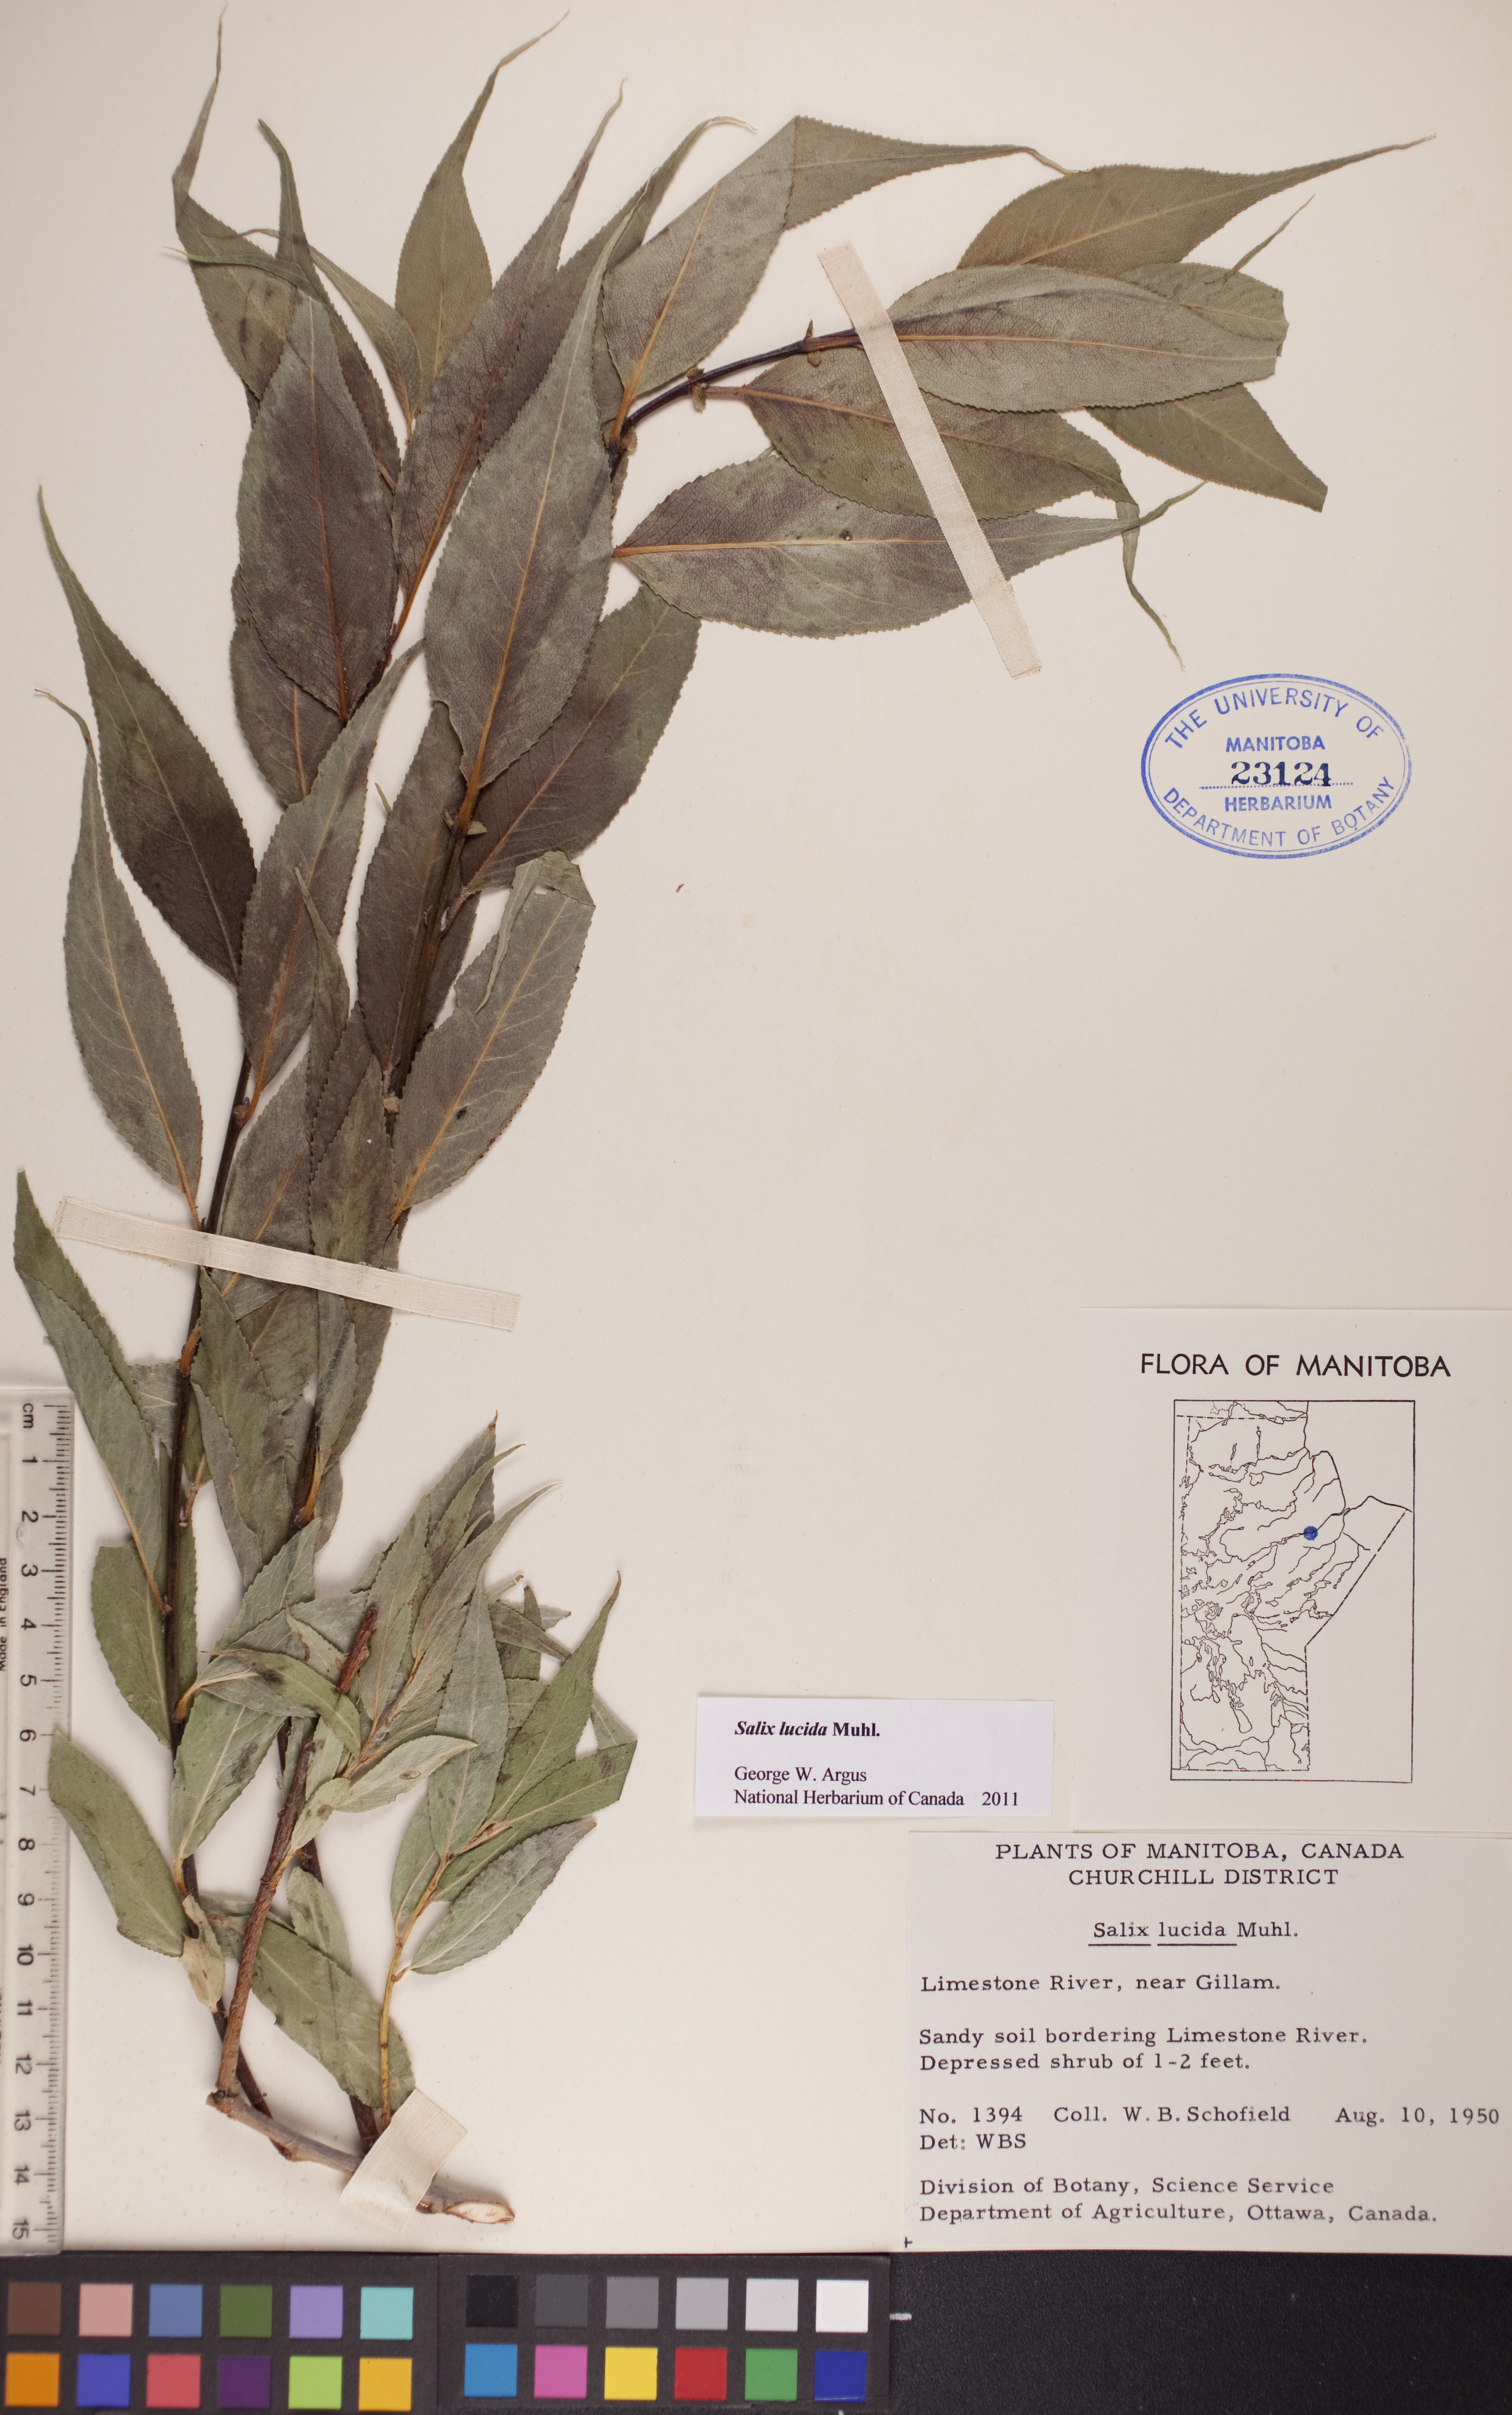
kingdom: Plantae
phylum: Tracheophyta
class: Magnoliopsida
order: Malpighiales
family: Salicaceae
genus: Salix
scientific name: Salix lucida
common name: Shining willow
